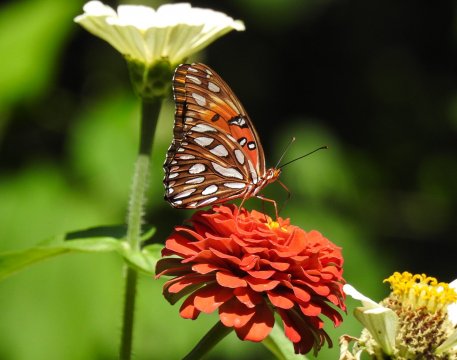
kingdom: Animalia
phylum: Arthropoda
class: Insecta
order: Lepidoptera
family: Nymphalidae
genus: Dione
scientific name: Dione vanillae
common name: Gulf Fritillary
